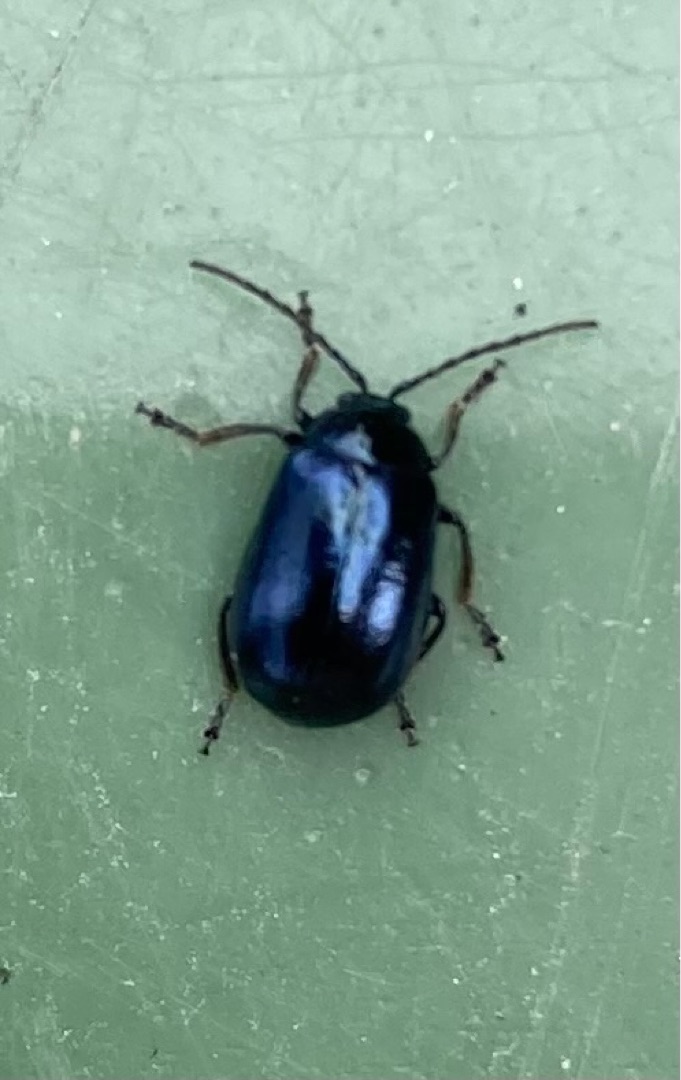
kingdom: Animalia
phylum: Arthropoda
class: Insecta
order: Coleoptera
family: Chrysomelidae
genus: Agelastica
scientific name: Agelastica alni
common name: Ellebladbille
